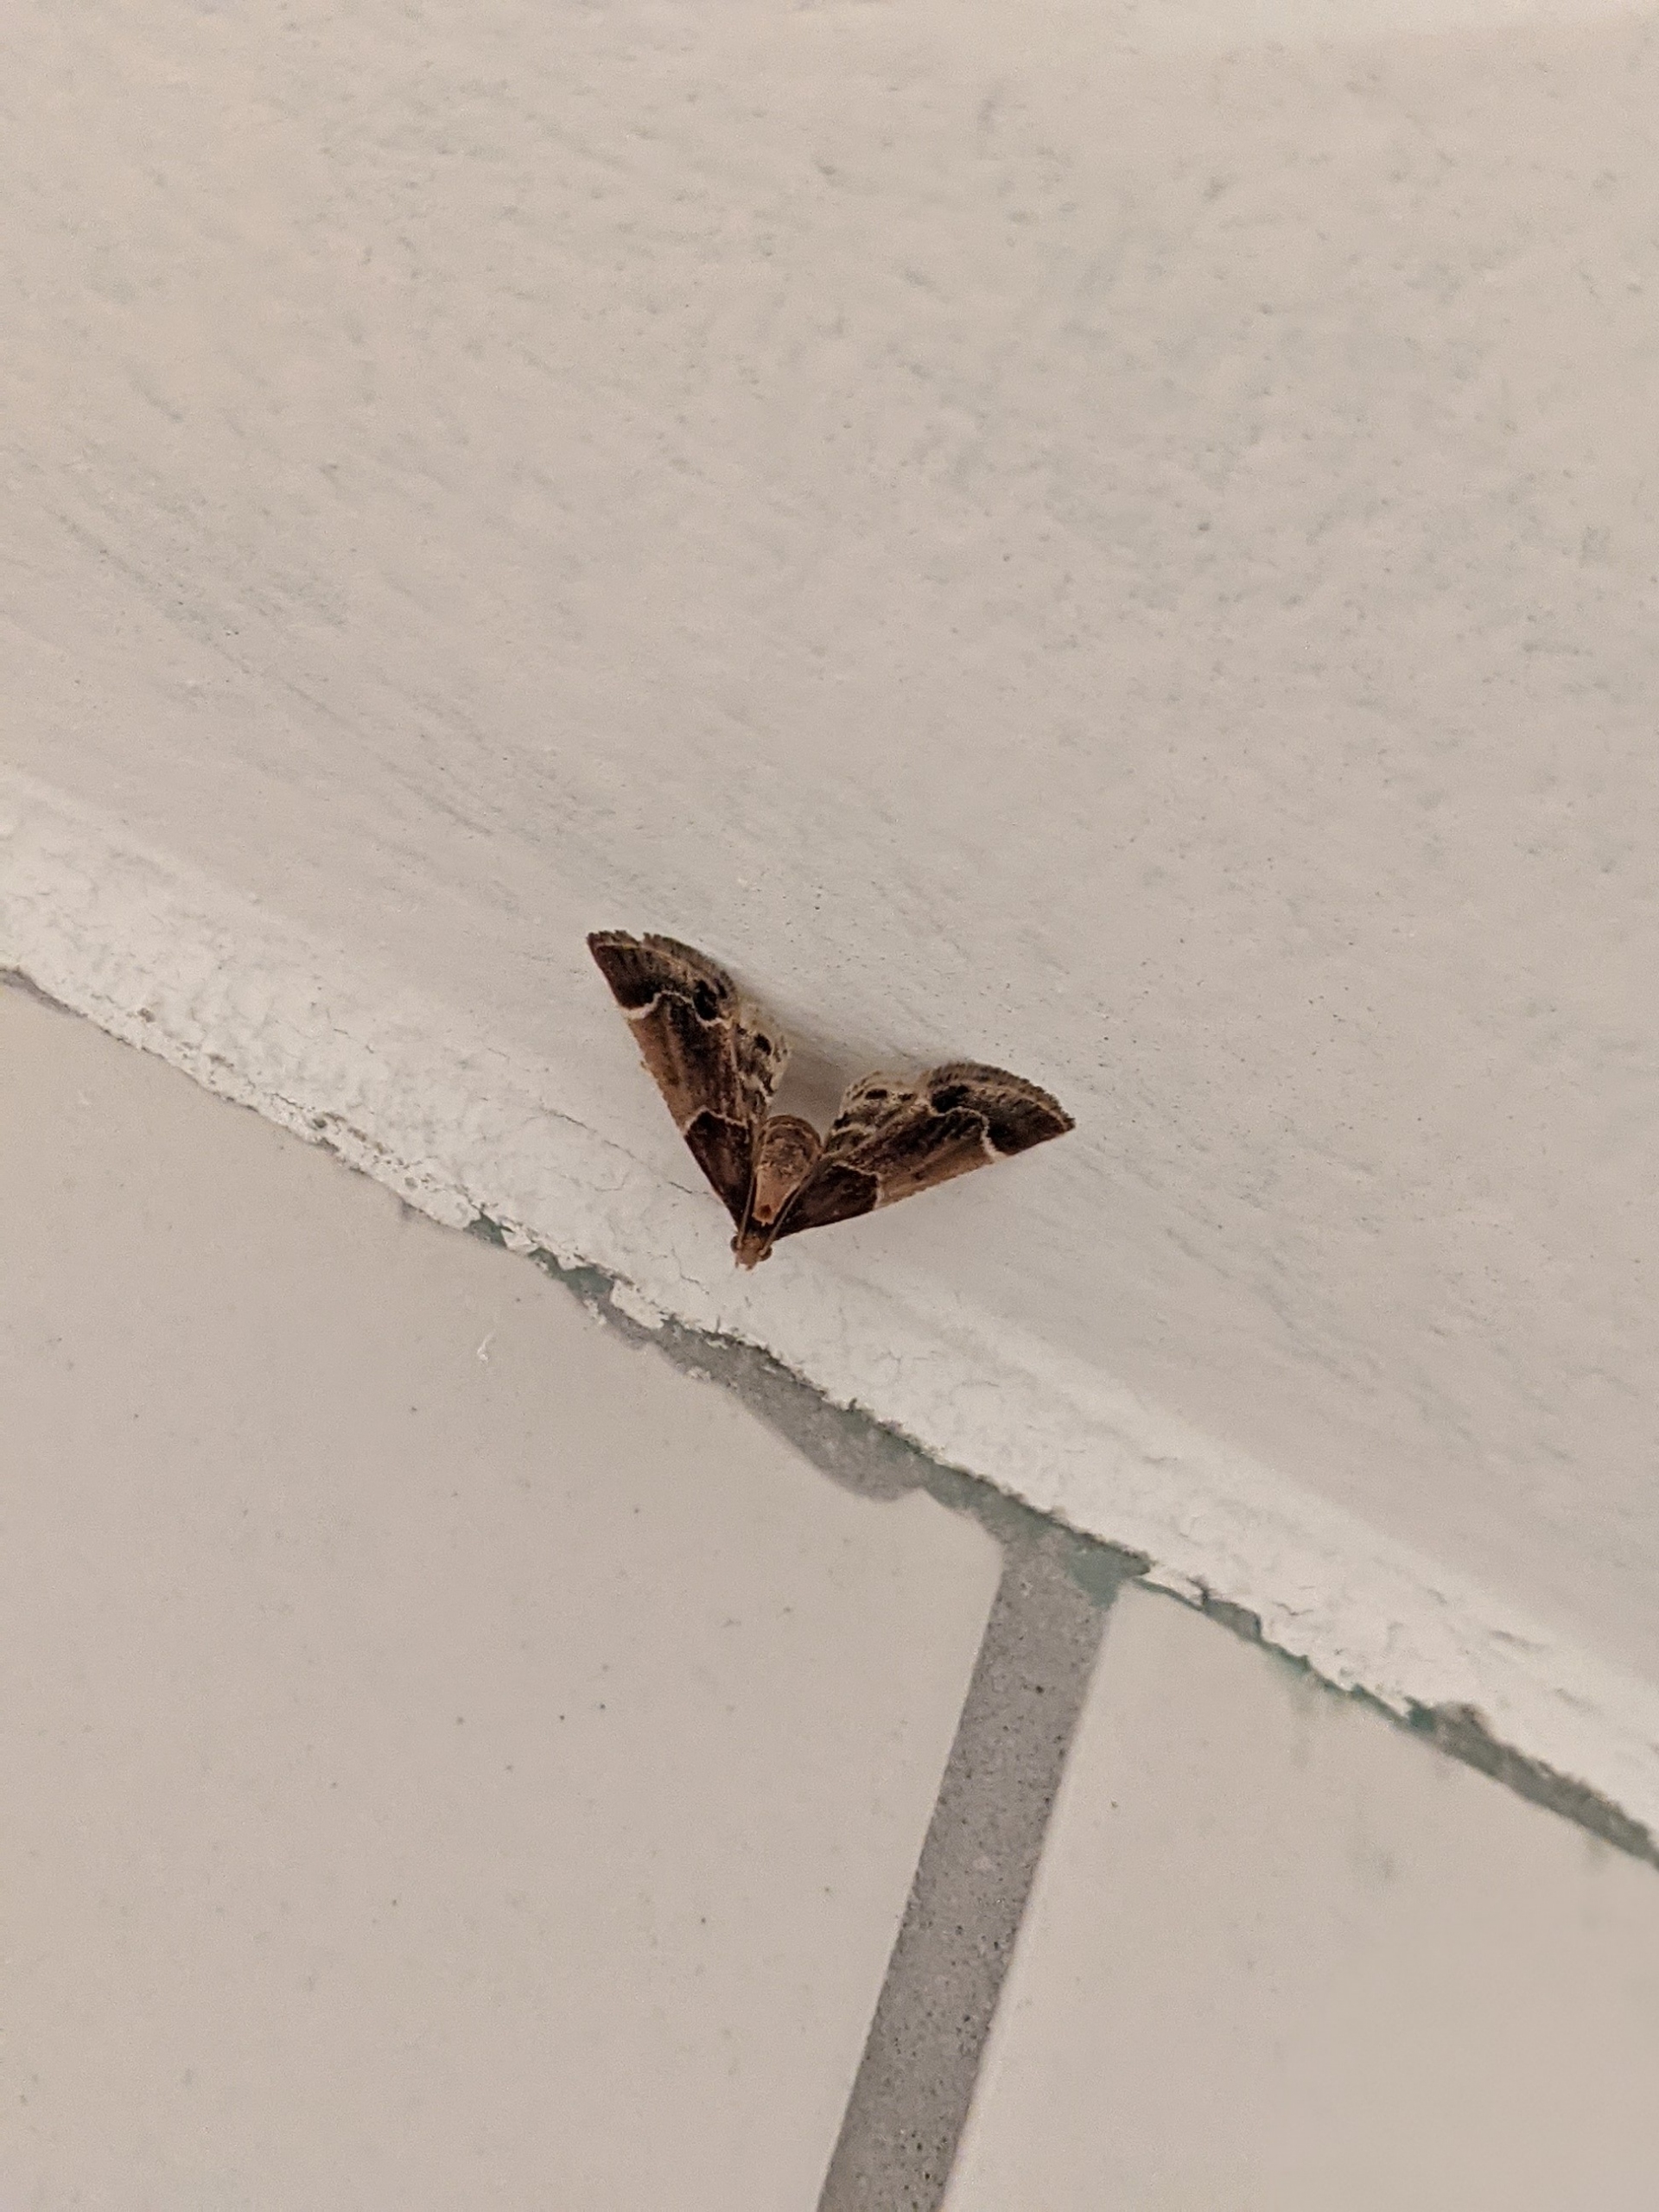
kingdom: Animalia
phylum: Arthropoda
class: Insecta
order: Lepidoptera
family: Pyralidae
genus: Pyralis
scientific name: Pyralis farinalis
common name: Stort melmøl
